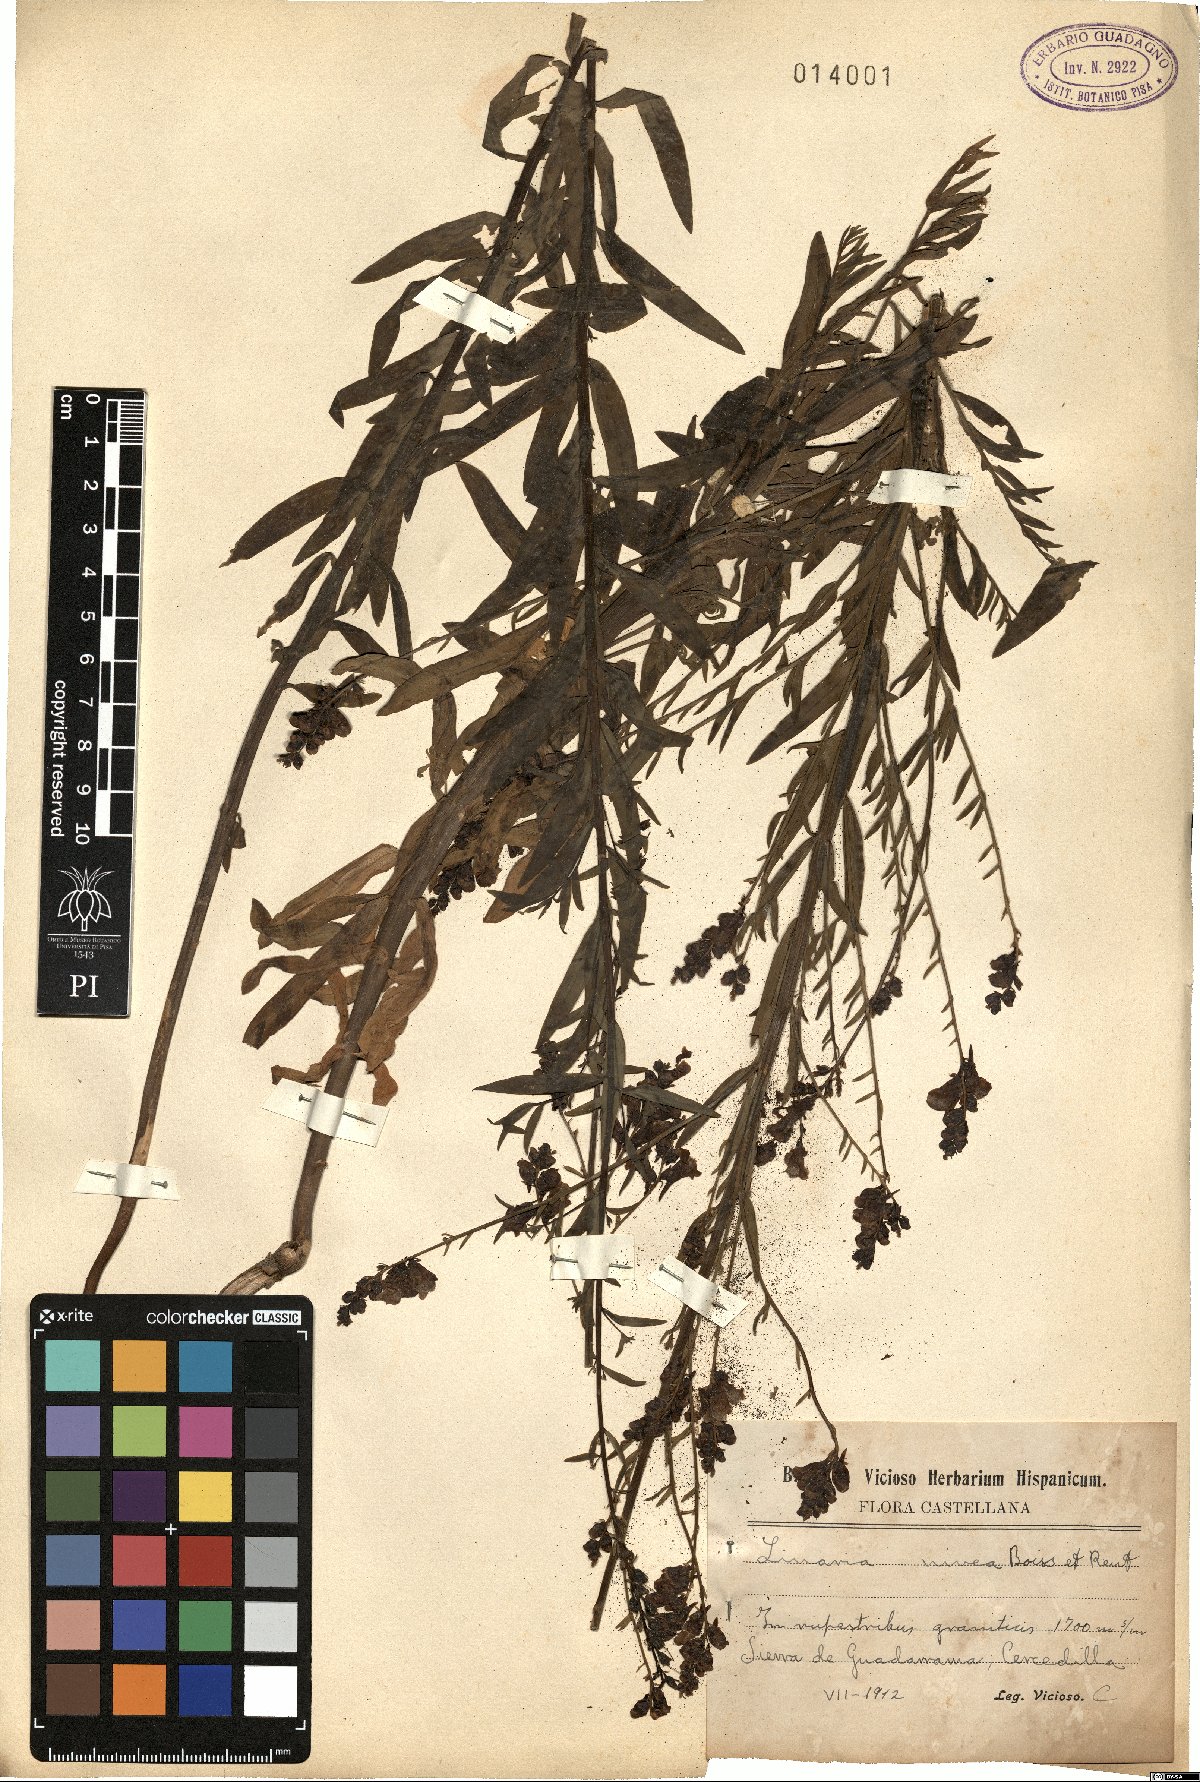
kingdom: Plantae
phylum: Tracheophyta
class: Magnoliopsida
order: Lamiales
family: Plantaginaceae
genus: Linaria
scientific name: Linaria nivea
